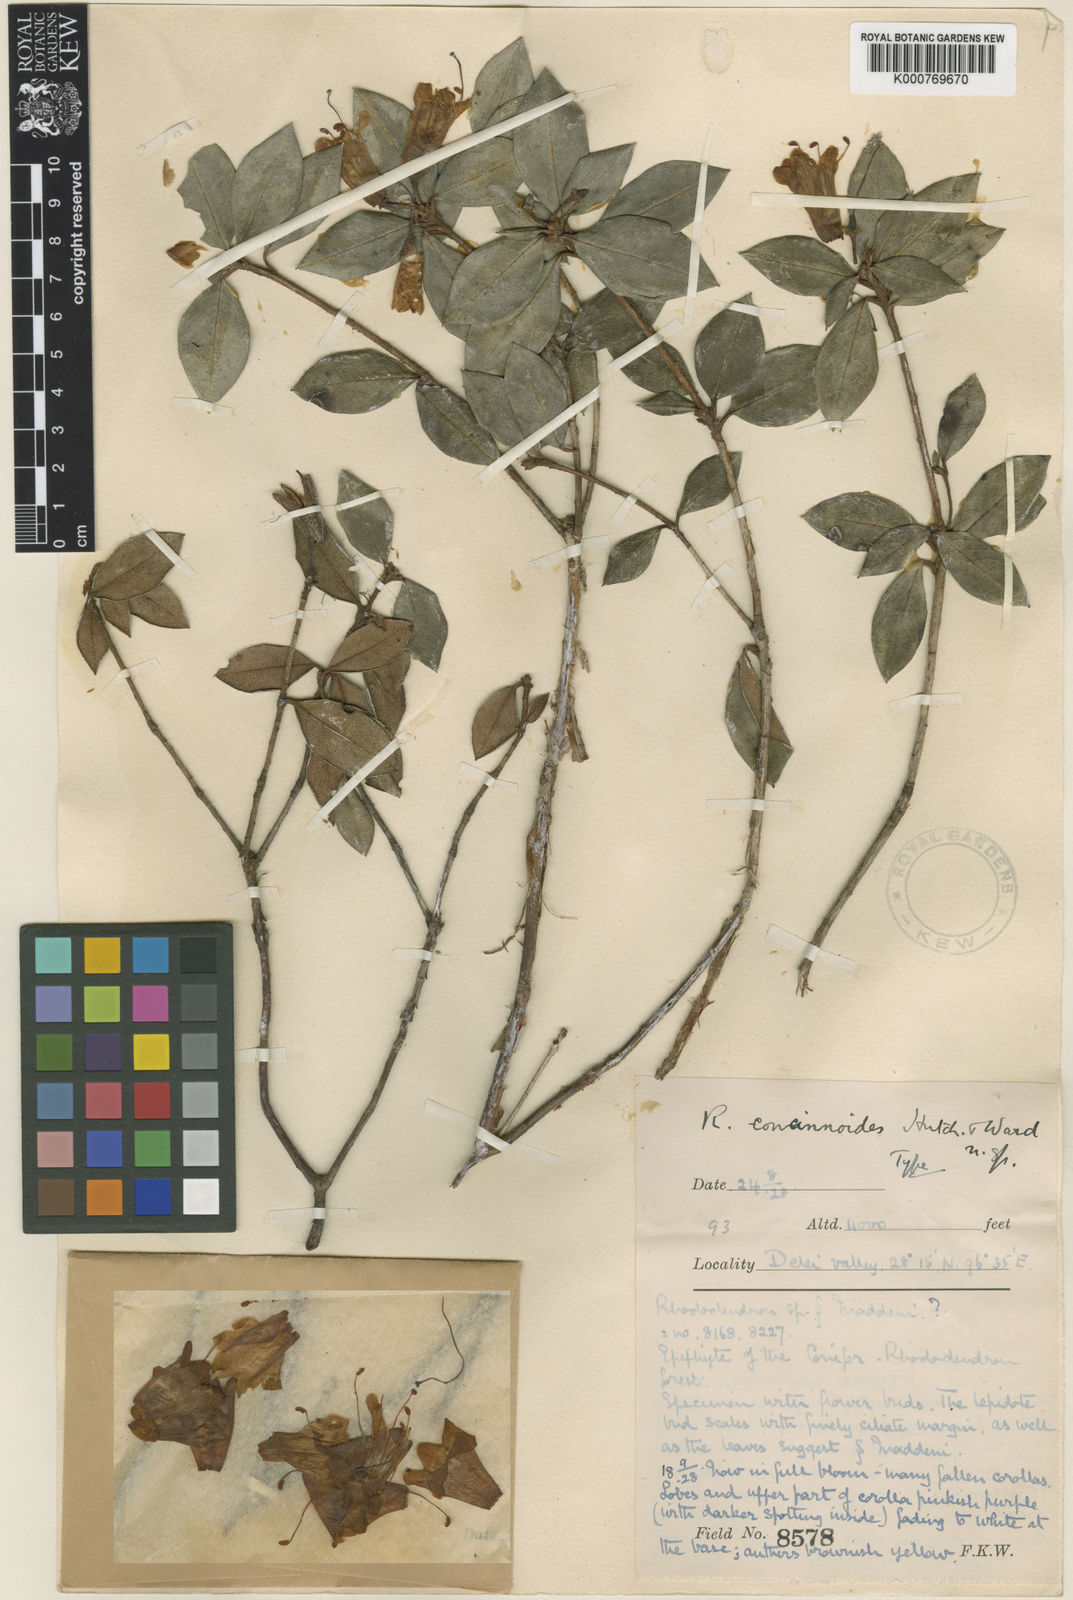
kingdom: Plantae
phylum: Tracheophyta
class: Magnoliopsida
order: Ericales
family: Ericaceae
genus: Rhododendron
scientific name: Rhododendron concinnoides
